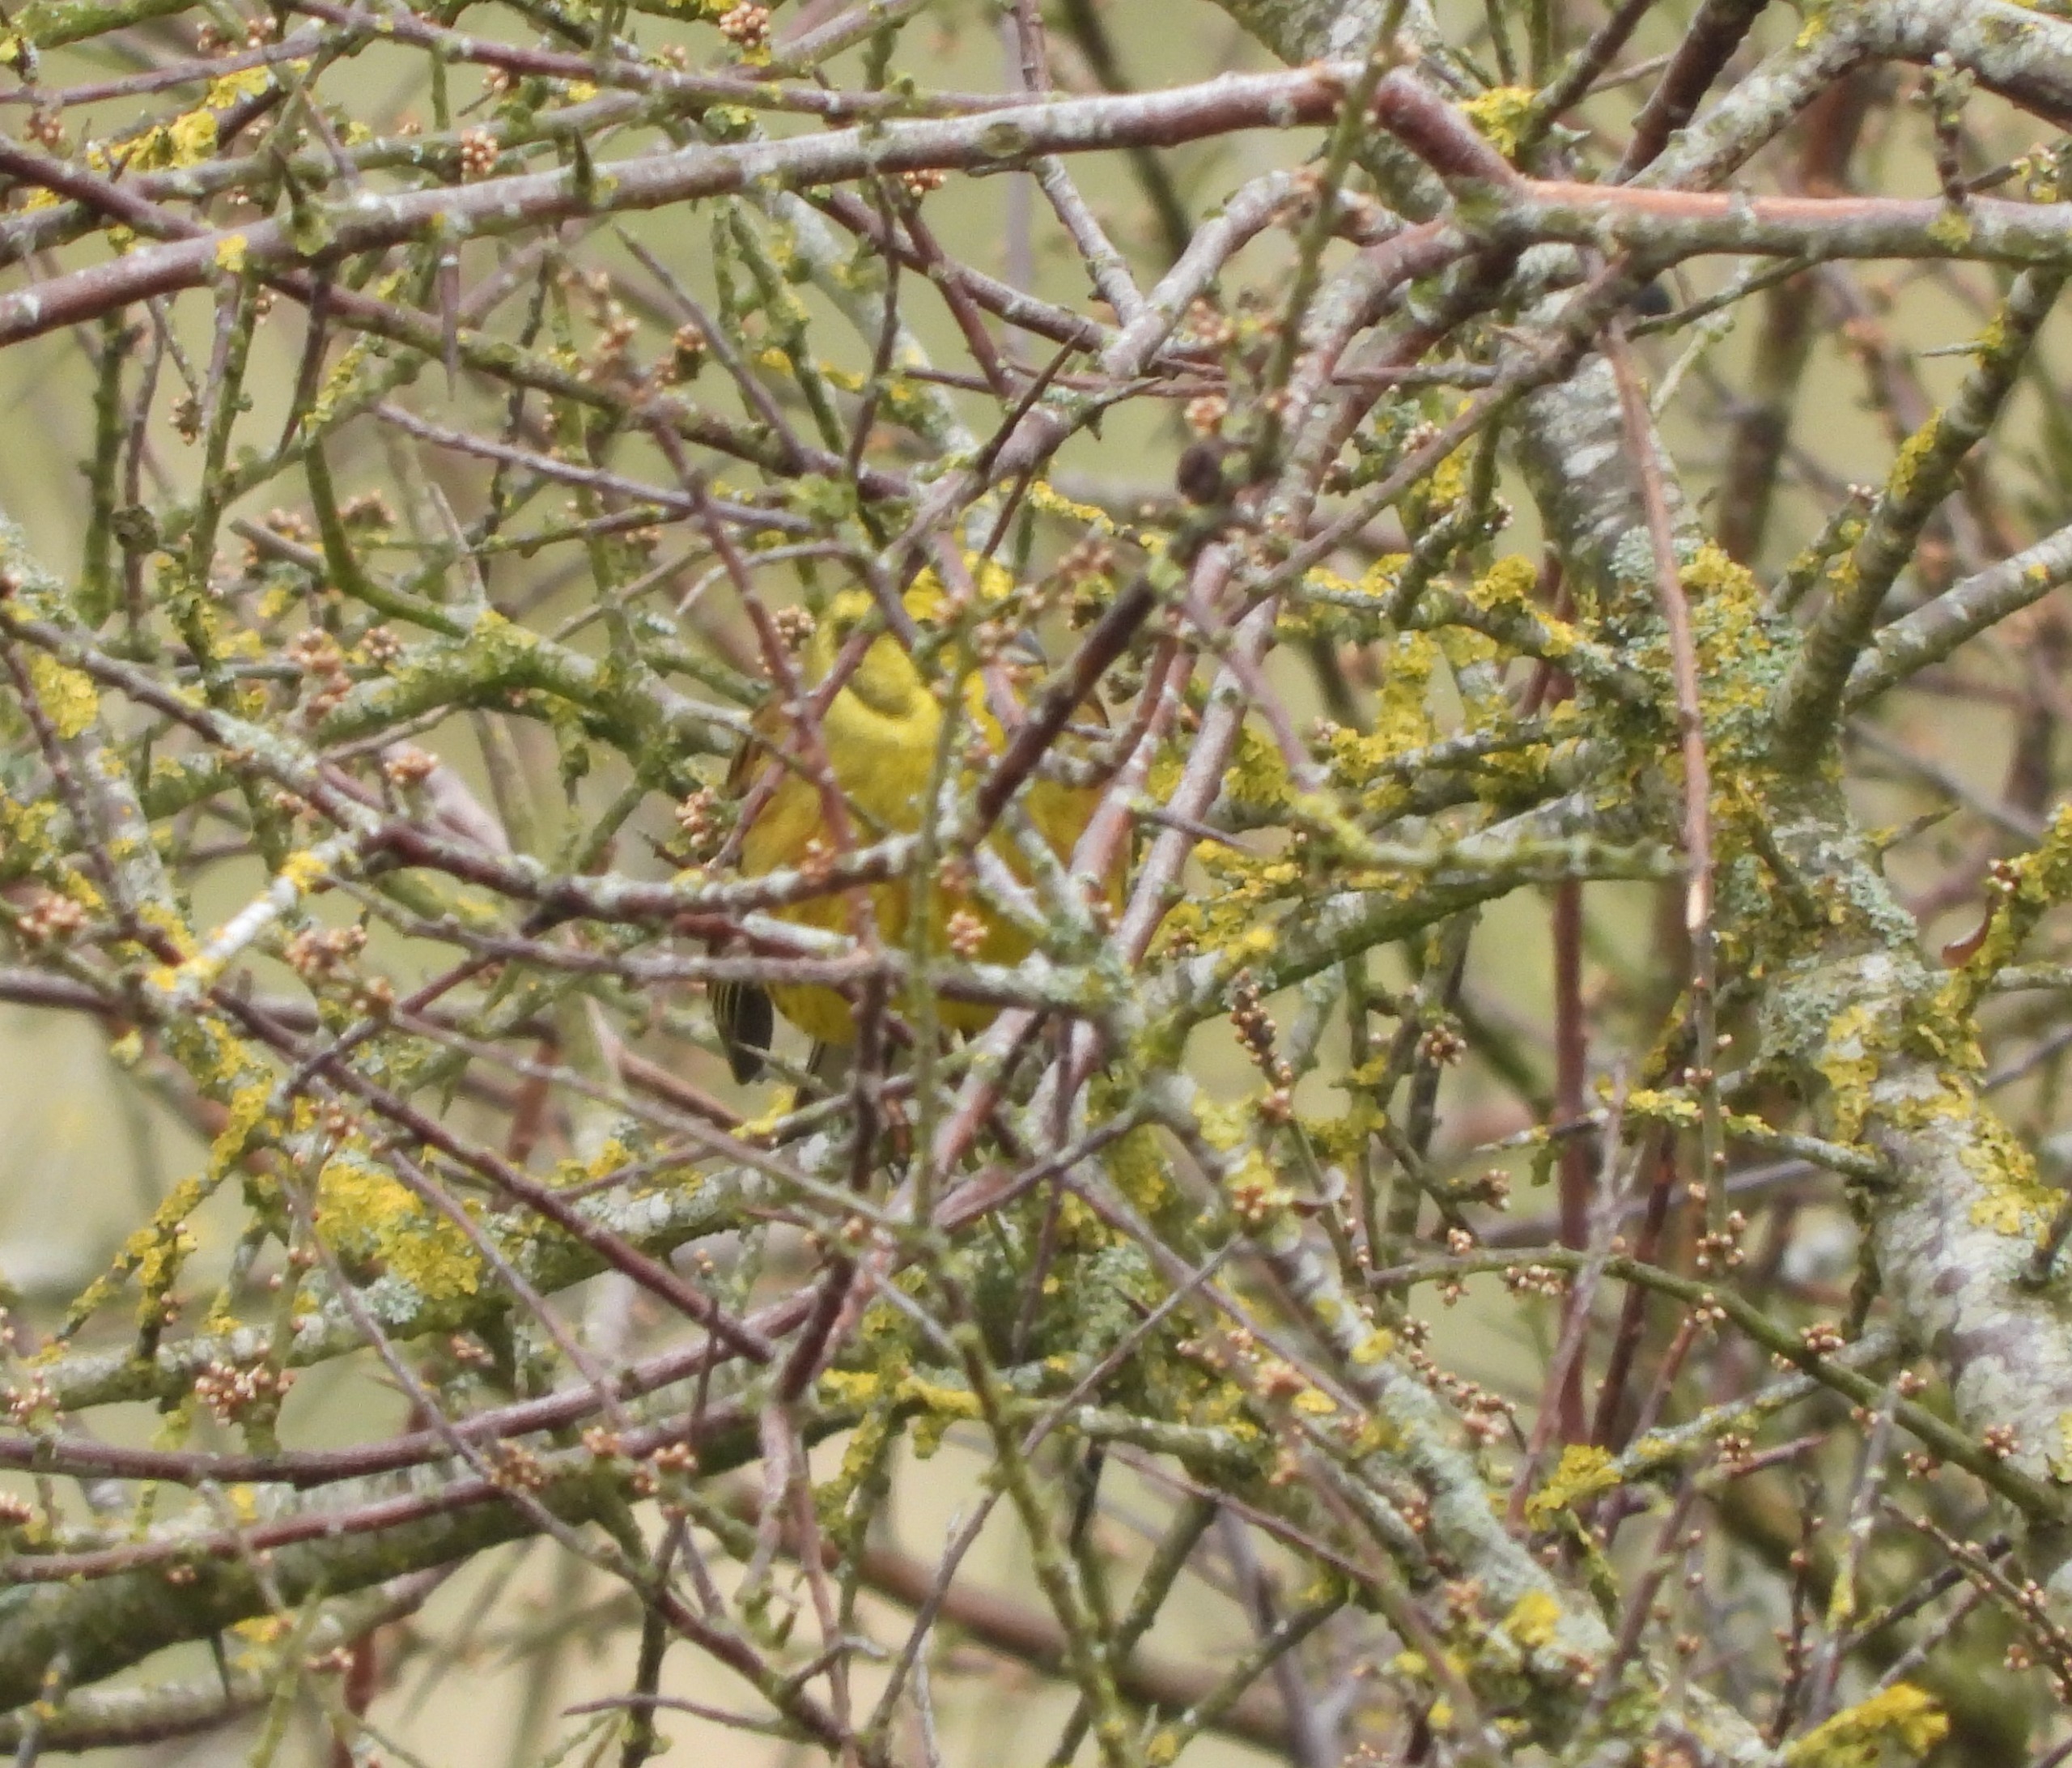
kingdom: Animalia
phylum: Chordata
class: Aves
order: Passeriformes
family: Emberizidae
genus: Emberiza
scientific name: Emberiza citrinella
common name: Gulspurv
